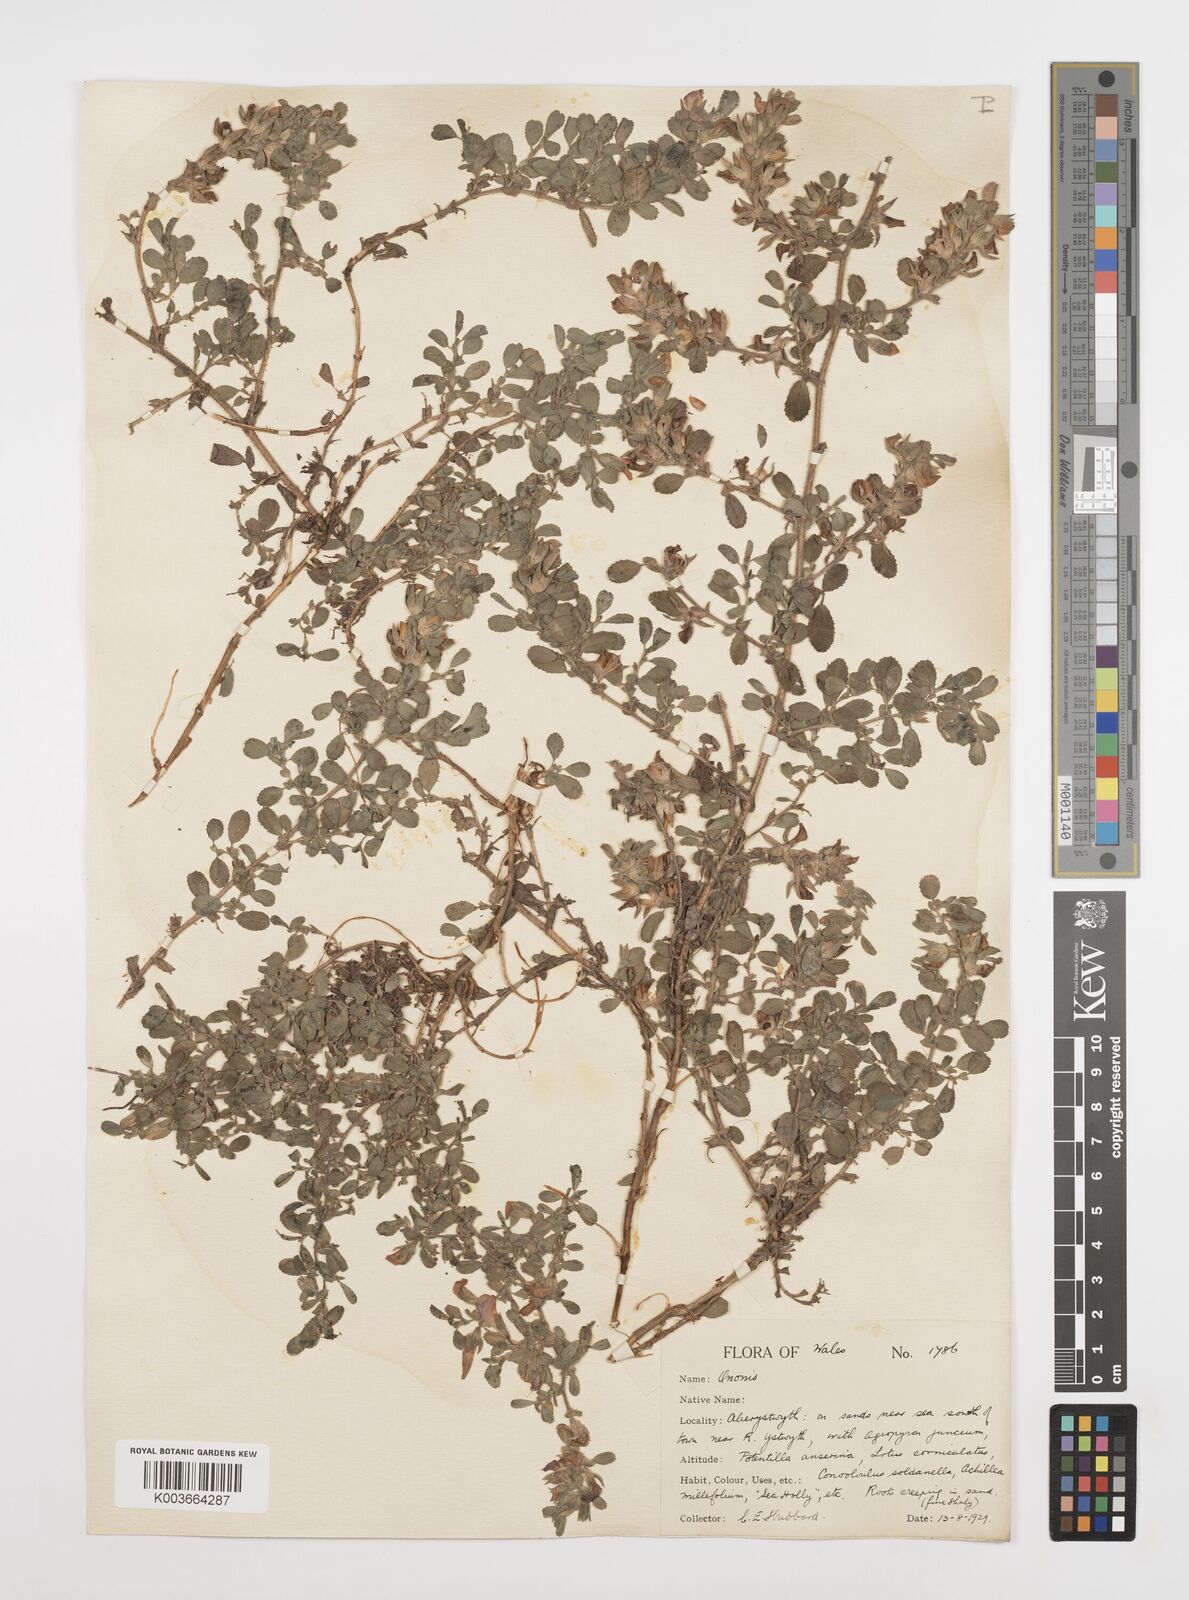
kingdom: Plantae
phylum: Tracheophyta
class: Magnoliopsida
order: Fabales
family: Fabaceae
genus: Ononis
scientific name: Ononis spinosa
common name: Spiny restharrow
